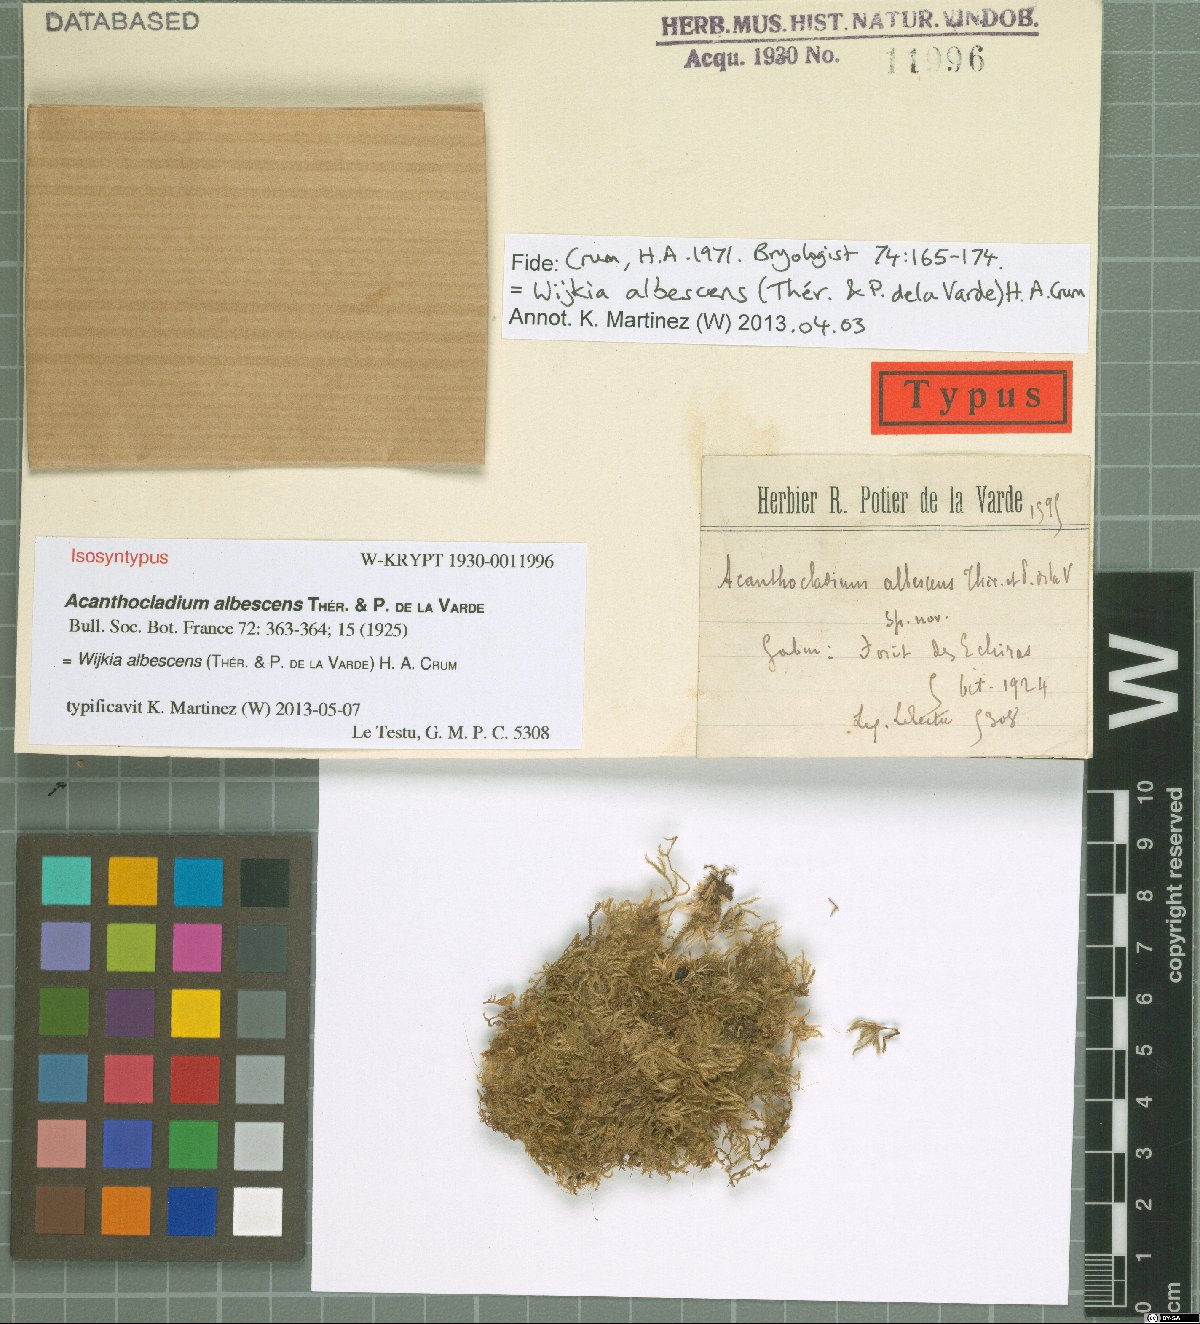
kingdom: Plantae
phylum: Bryophyta
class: Bryopsida
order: Hypnales
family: Sematophyllaceae
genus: Sematophyllum
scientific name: Sematophyllum albescens
